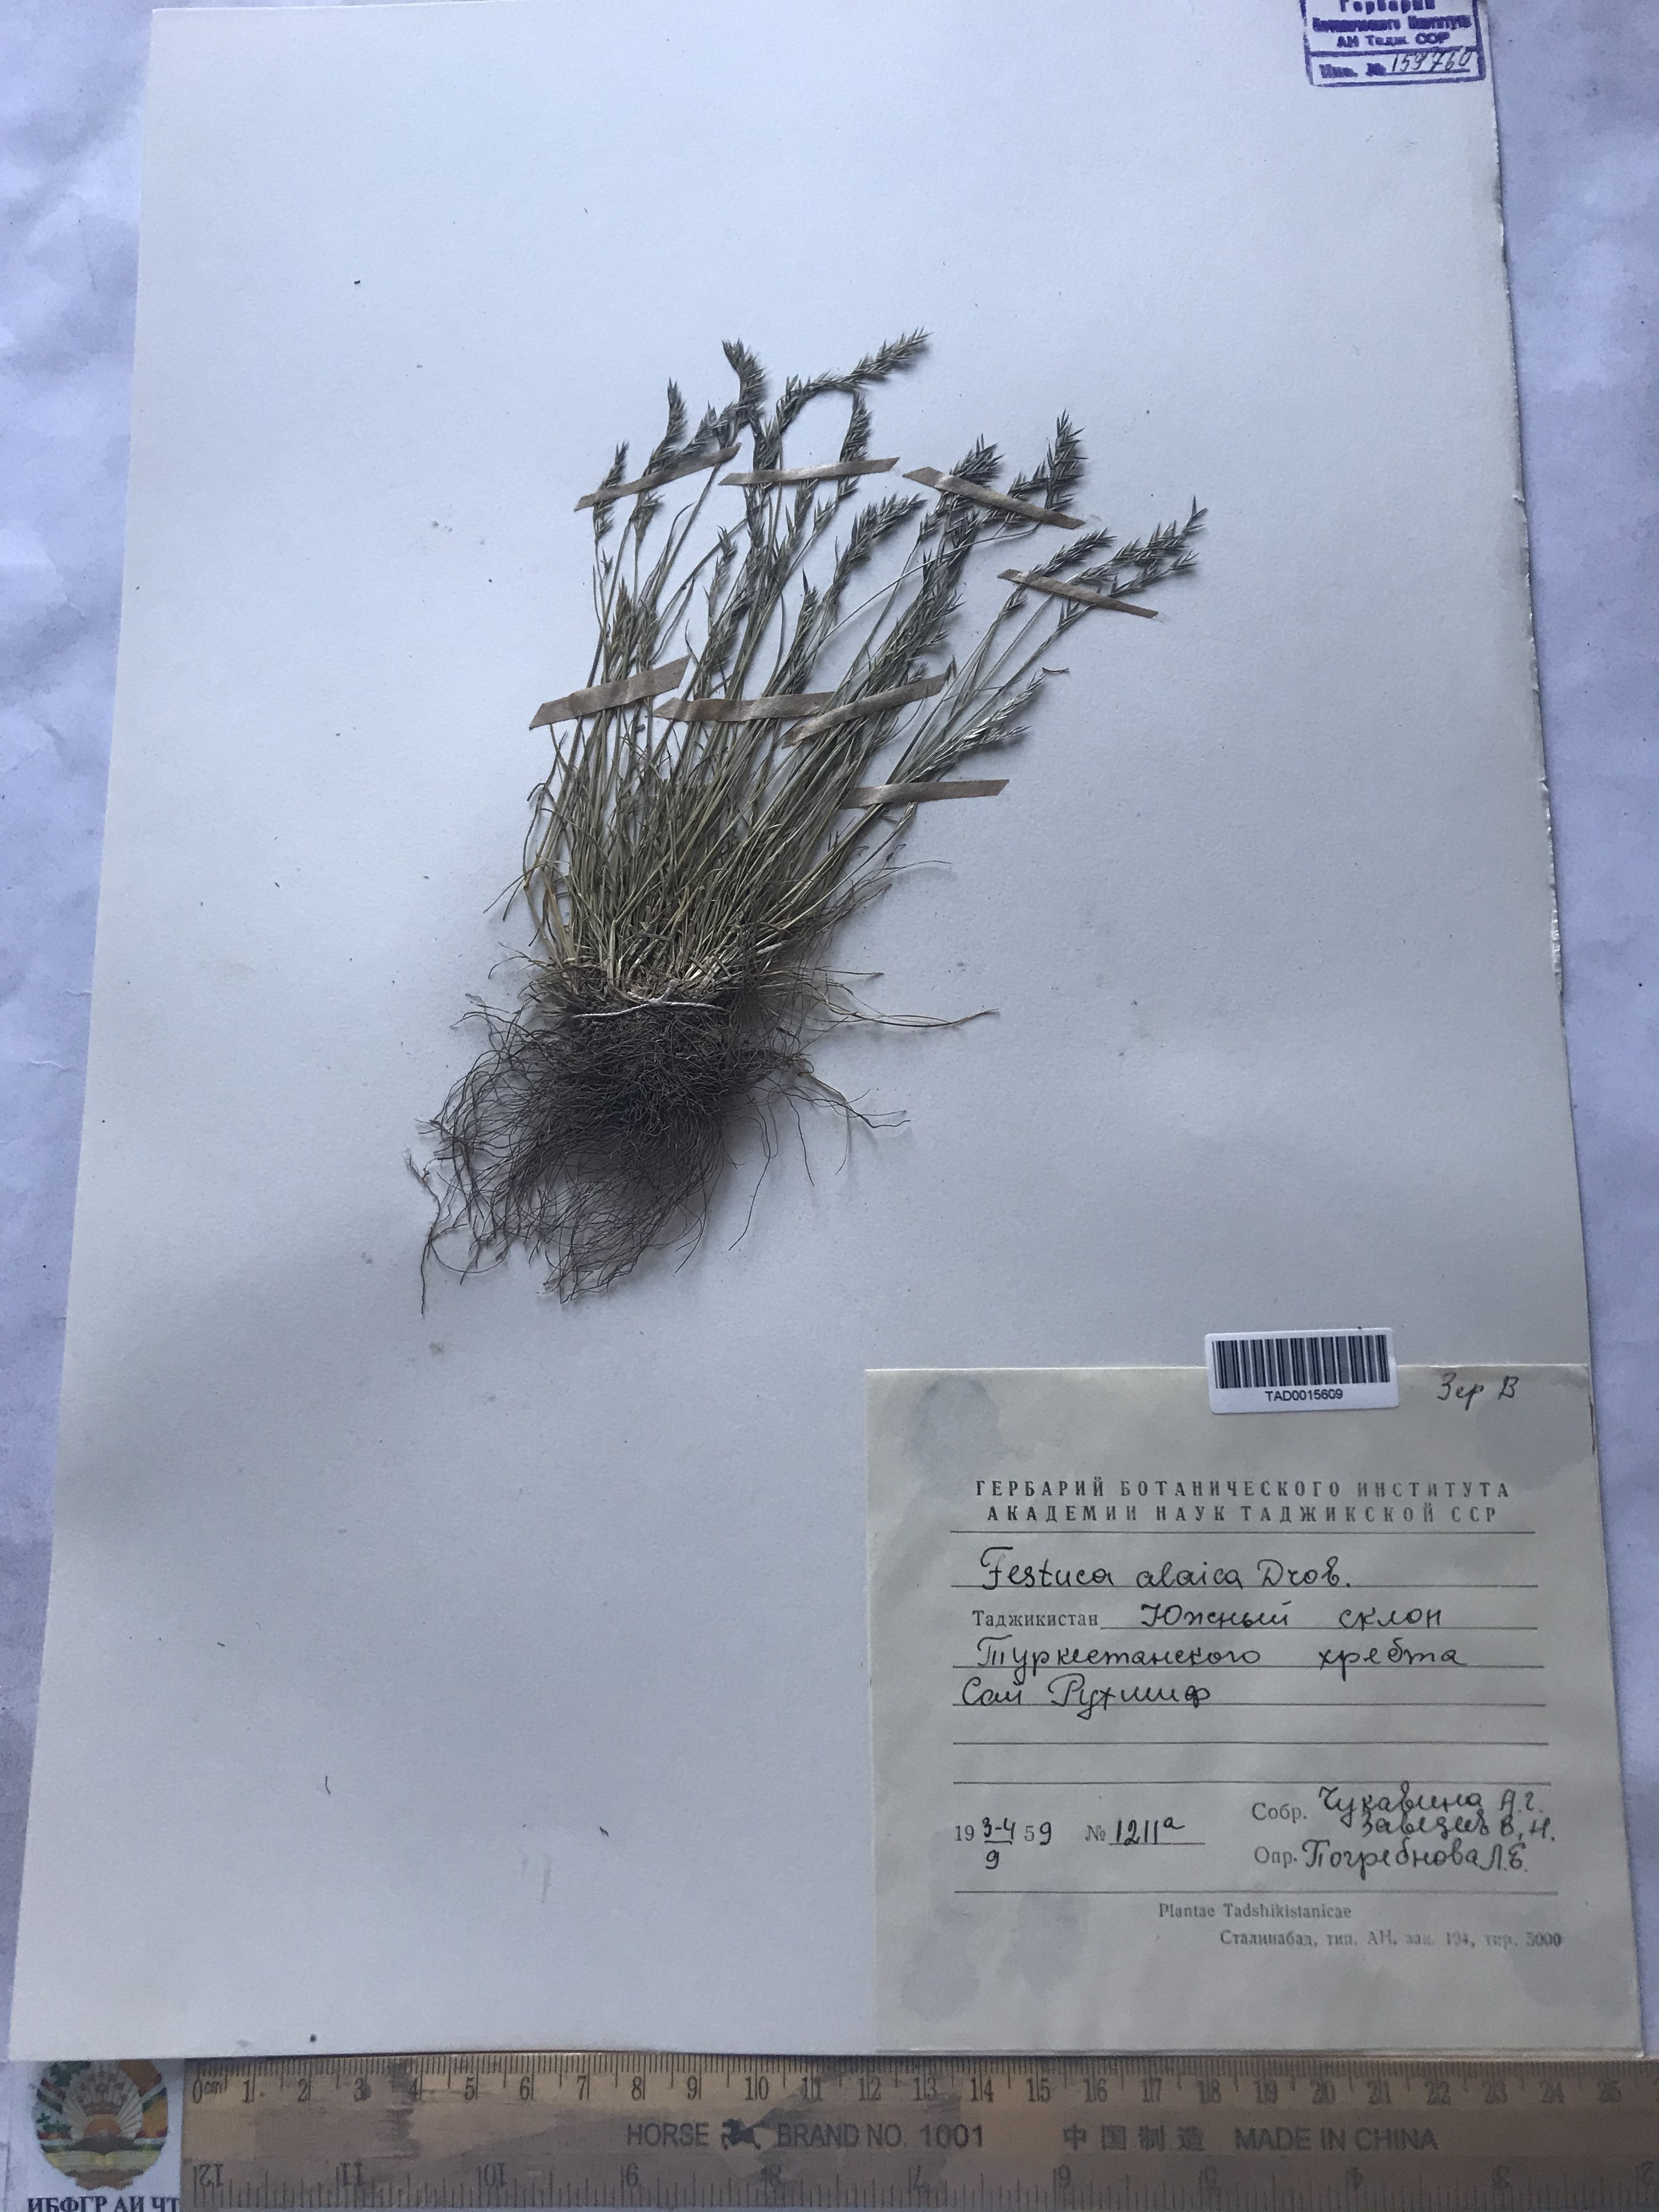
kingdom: Plantae
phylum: Tracheophyta
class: Liliopsida
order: Poales
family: Poaceae
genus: Festuca
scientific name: Festuca alaica
